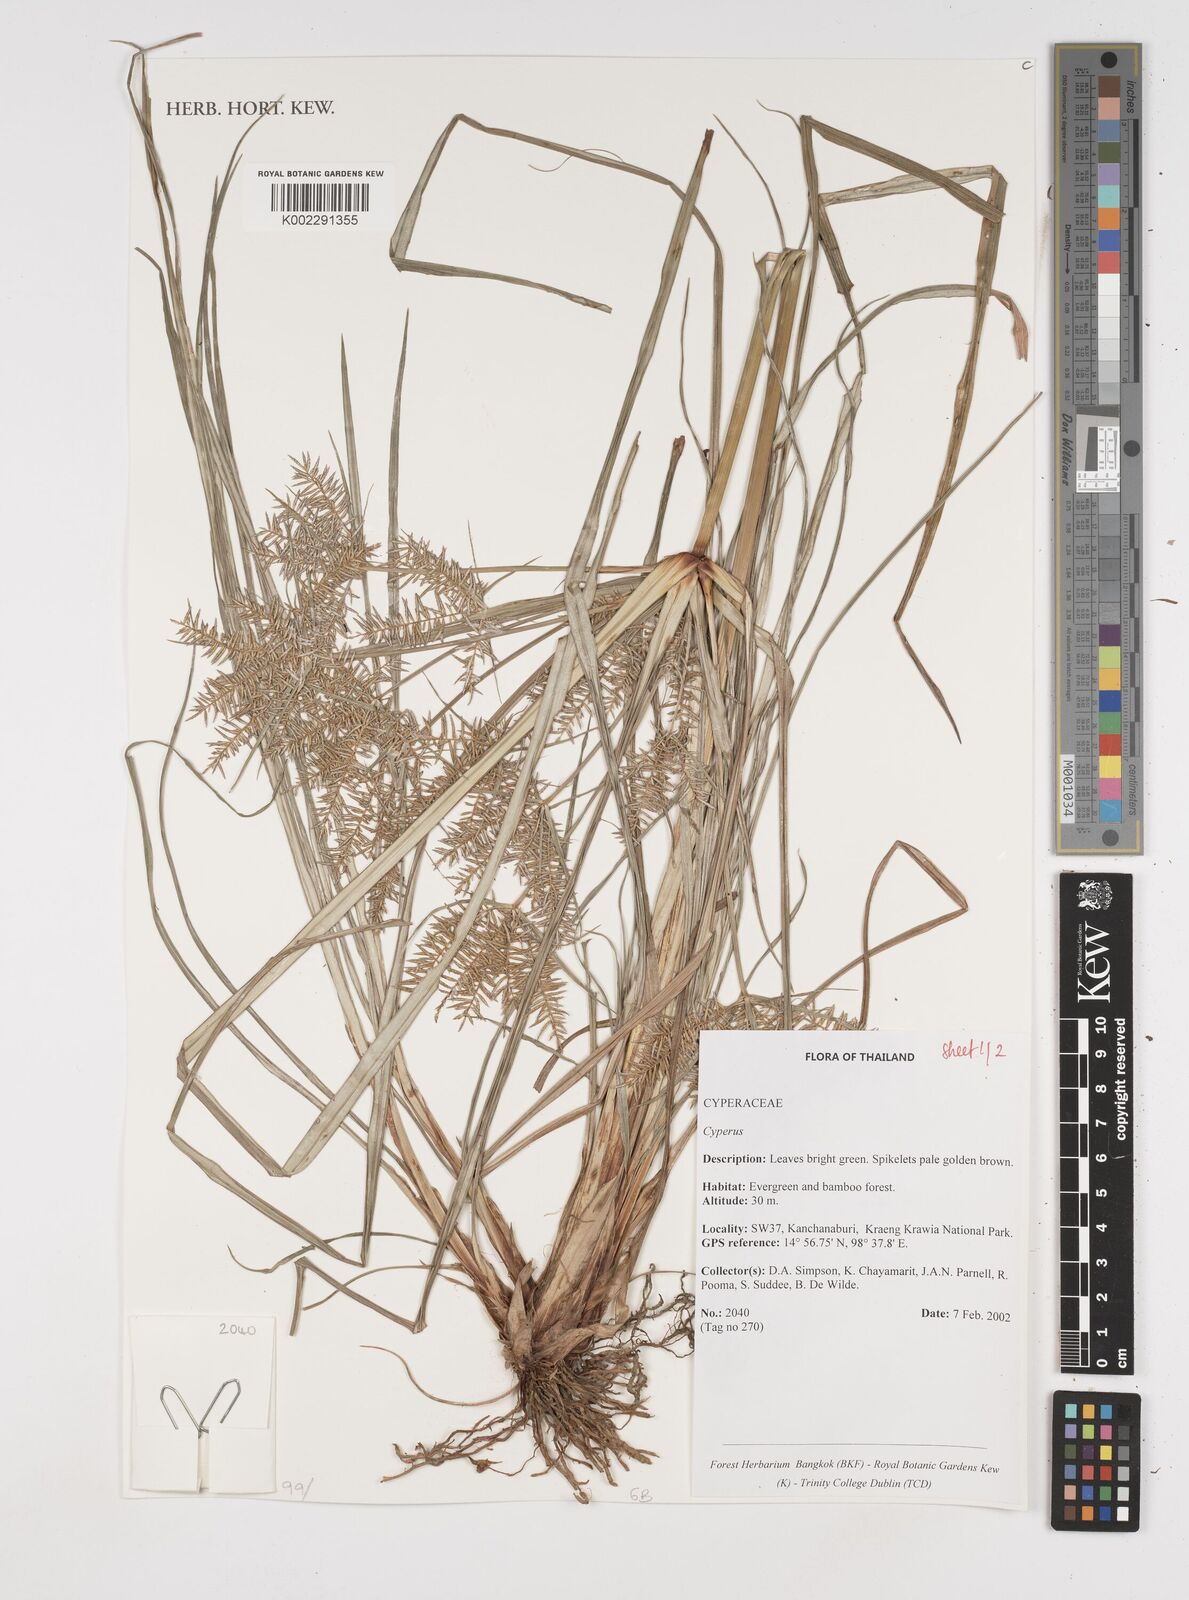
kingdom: Plantae
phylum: Tracheophyta
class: Liliopsida
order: Poales
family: Cyperaceae
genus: Cyperus
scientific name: Cyperus
